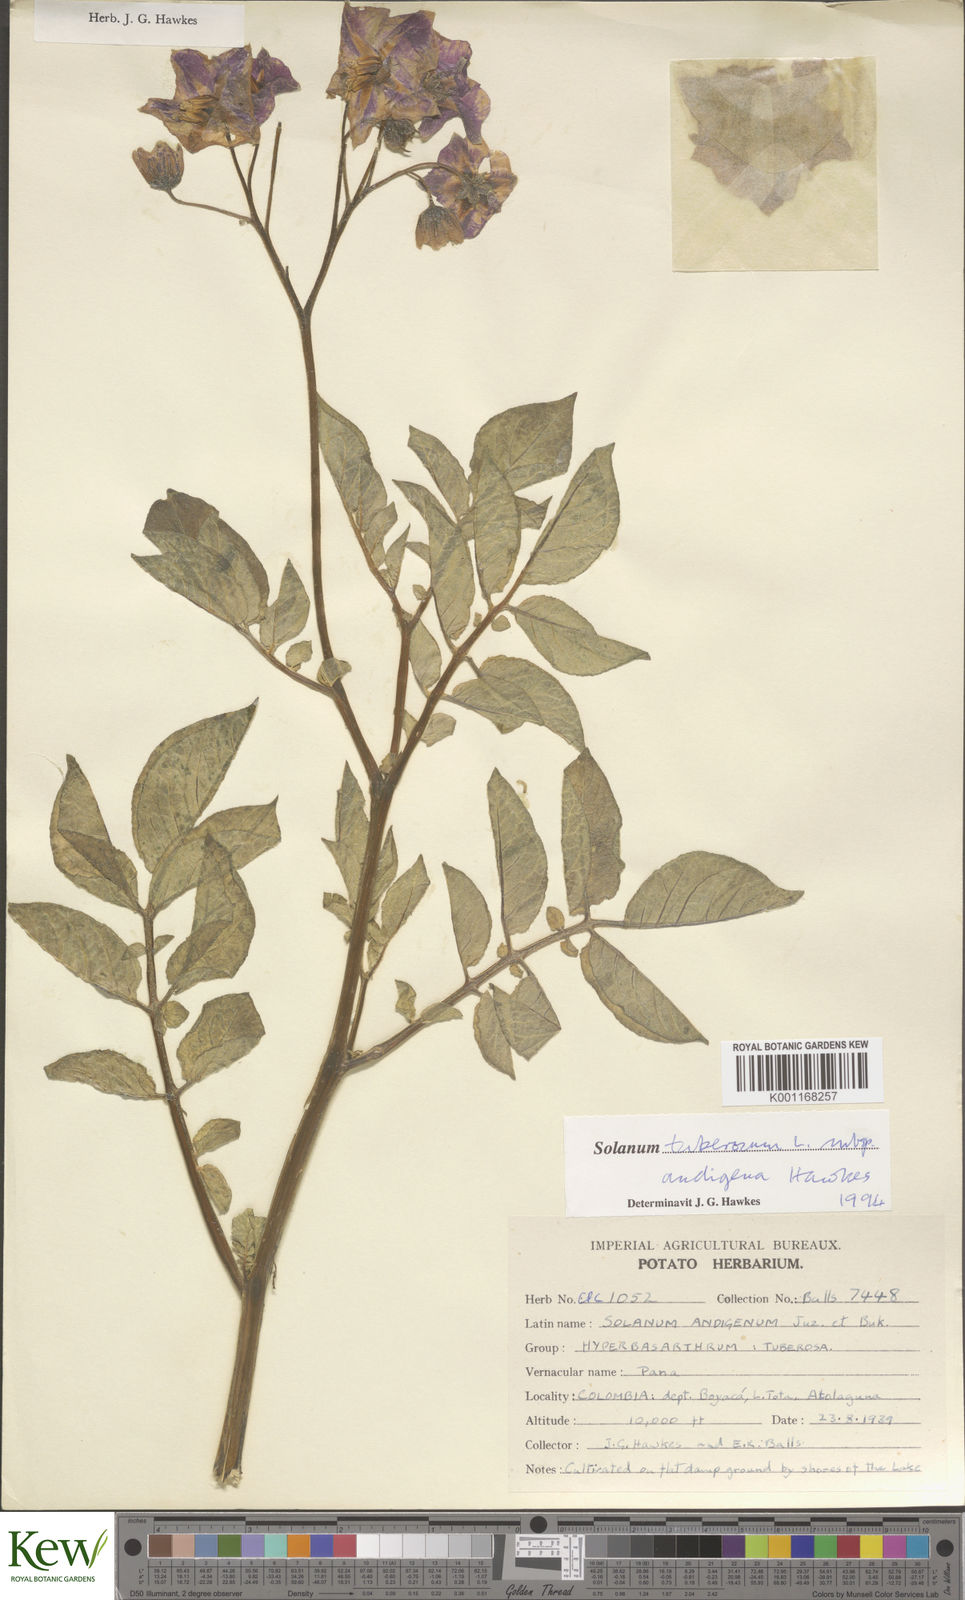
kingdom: Plantae
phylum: Tracheophyta
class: Magnoliopsida
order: Solanales
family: Solanaceae
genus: Solanum
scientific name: Solanum tuberosum
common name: Potato
